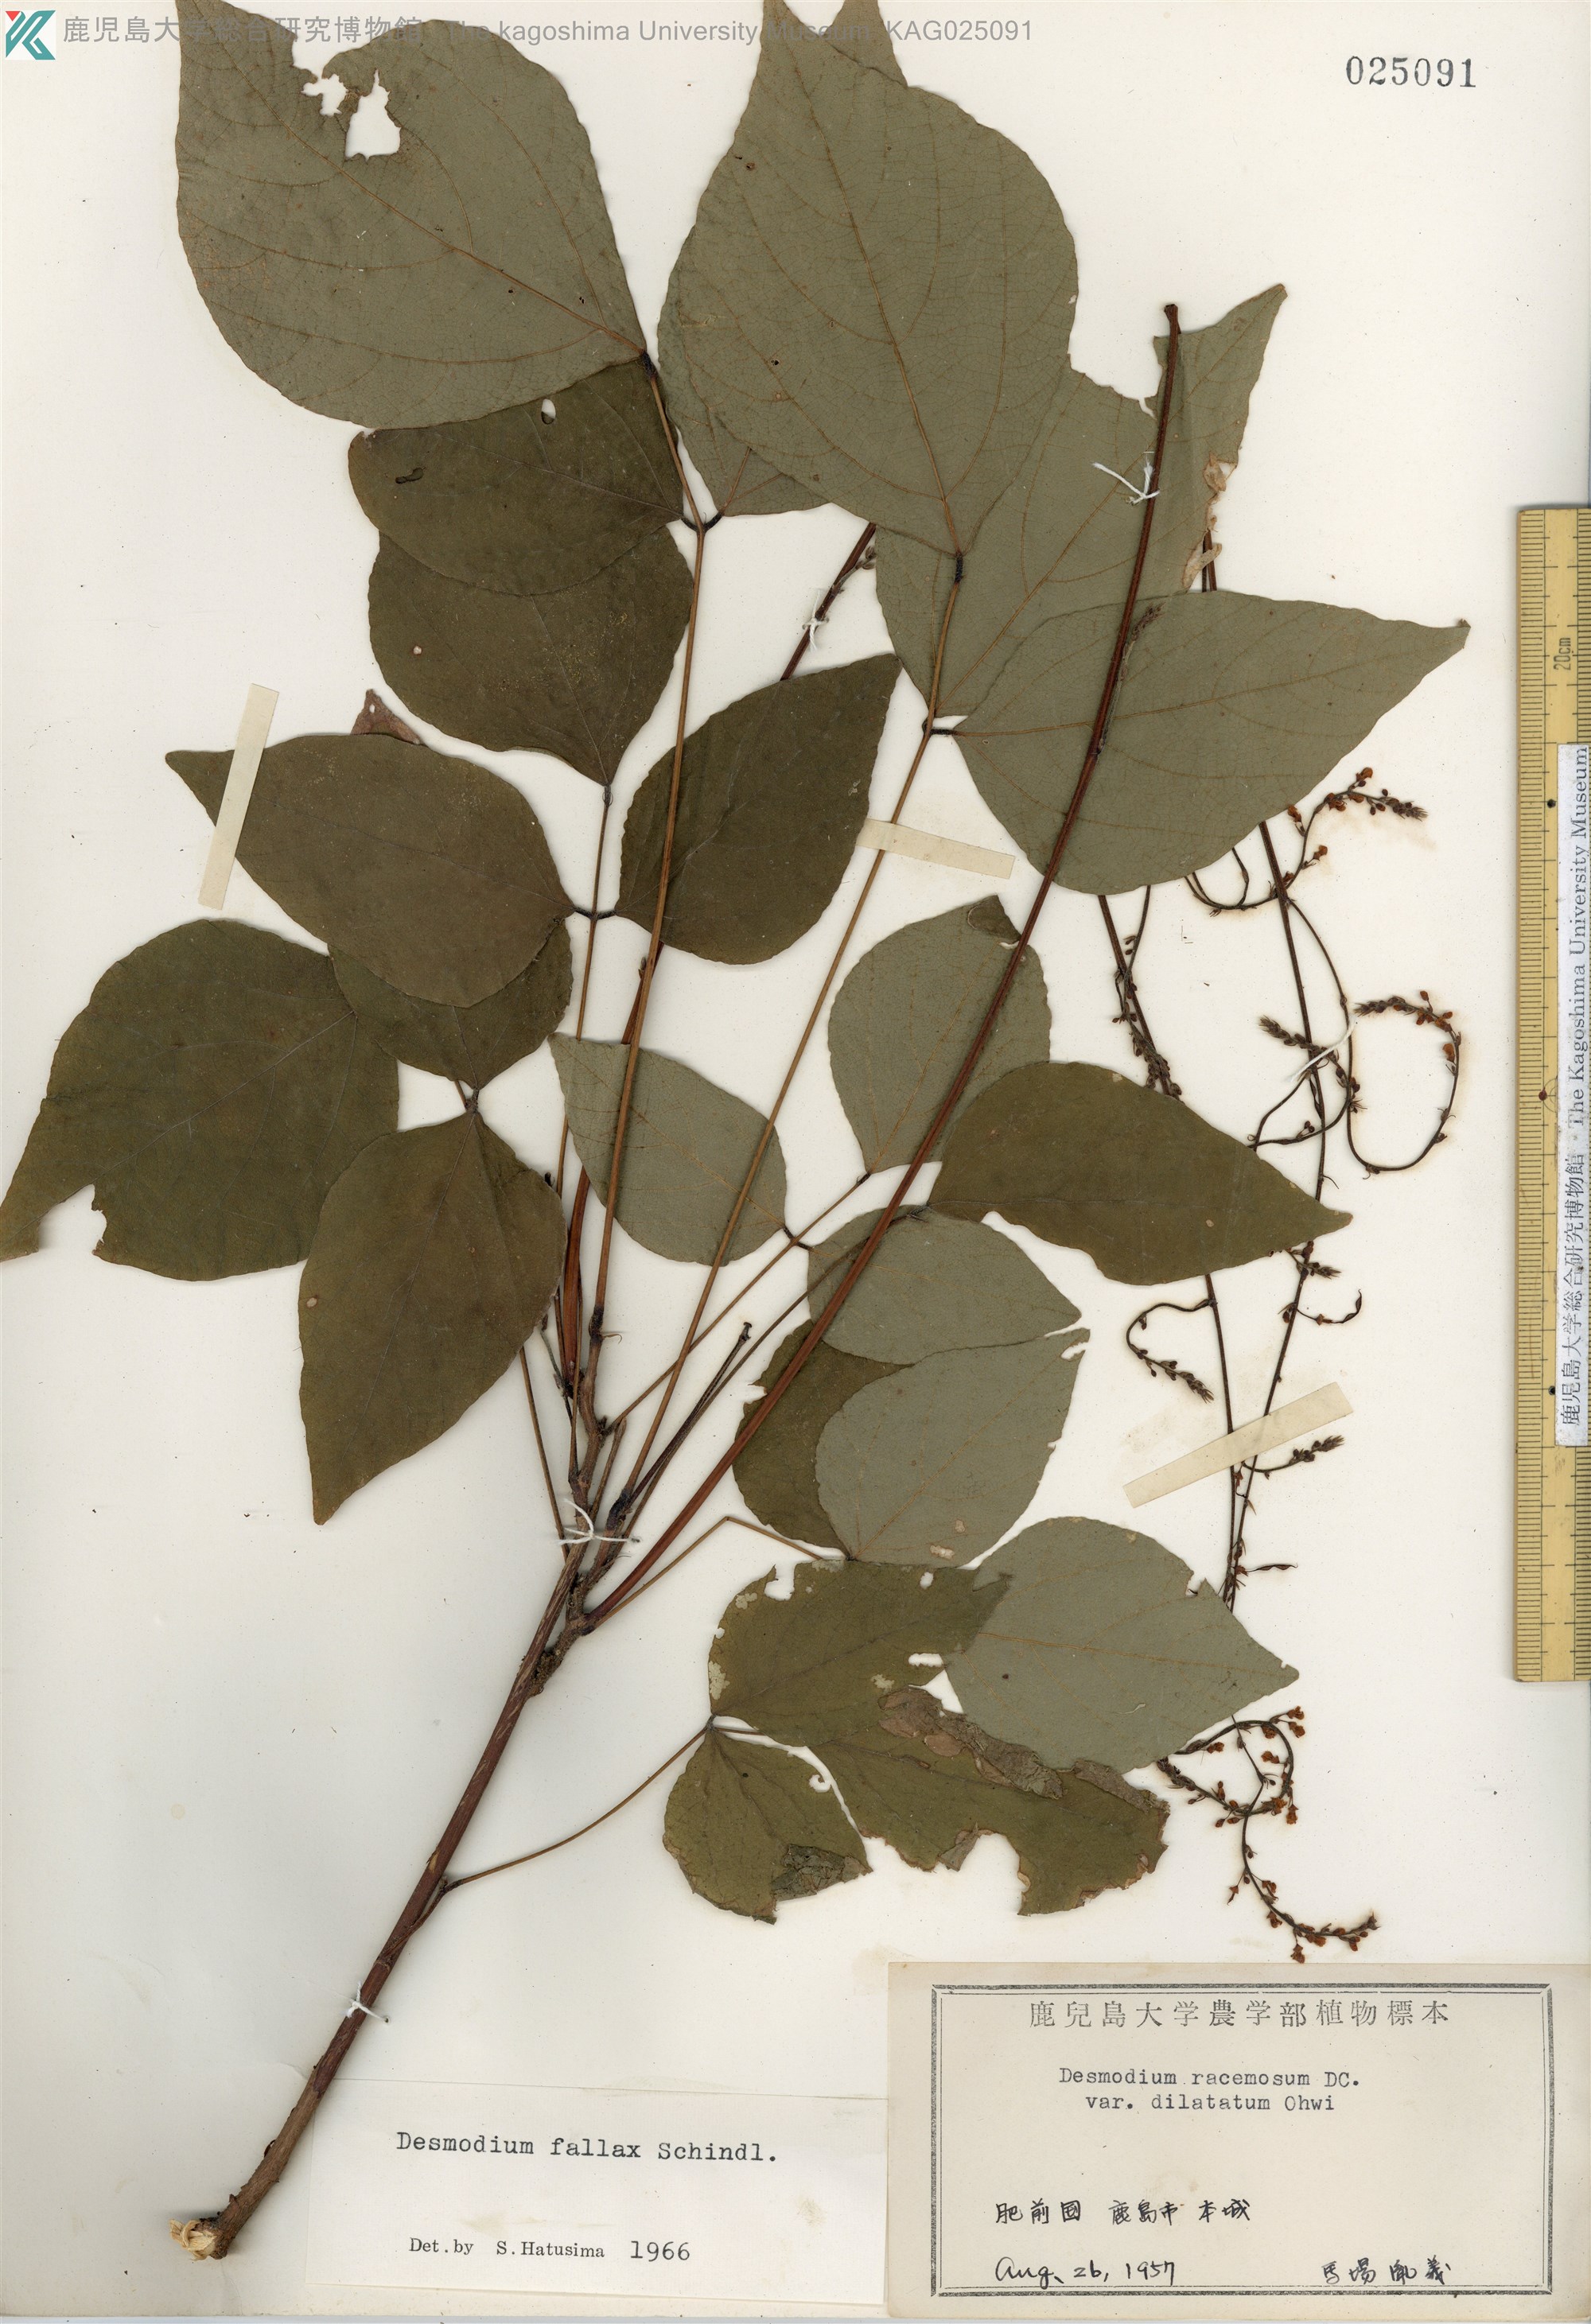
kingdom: Plantae
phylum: Tracheophyta
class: Magnoliopsida
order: Fabales
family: Fabaceae
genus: Hylodesmum
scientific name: Hylodesmum podocarpum
